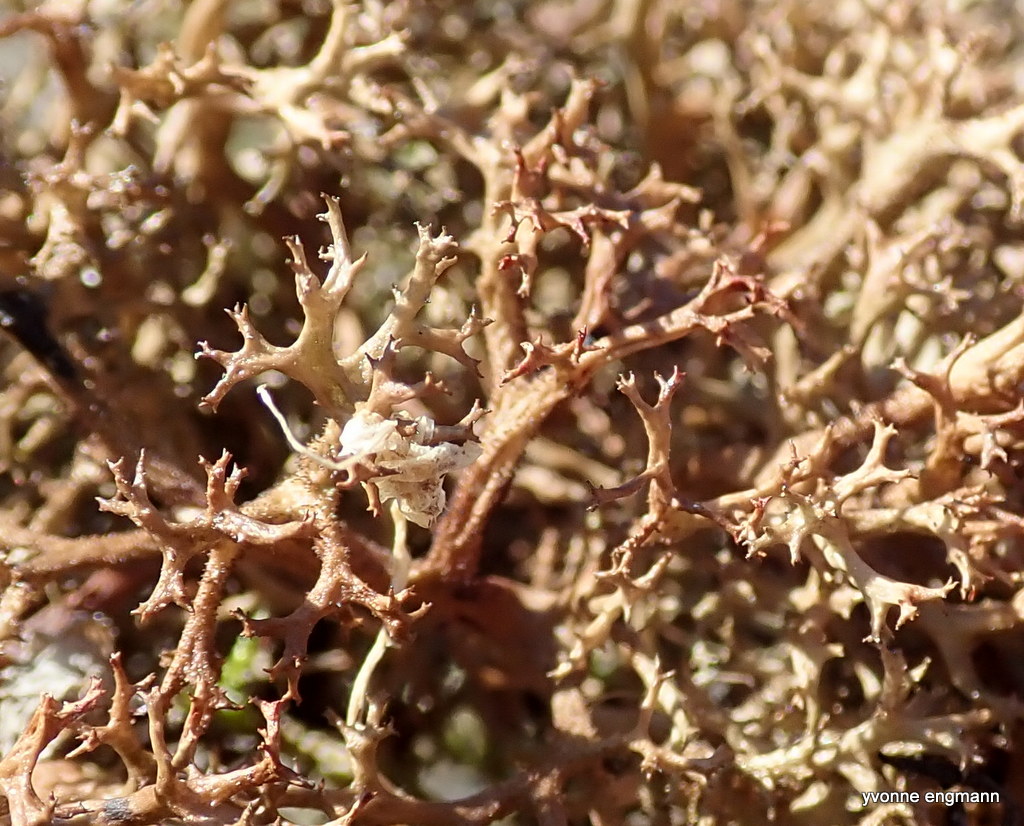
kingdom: Fungi
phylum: Ascomycota
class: Lecanoromycetes
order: Lecanorales
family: Parmeliaceae
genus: Cetraria
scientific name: Cetraria aculeata
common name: grubet tjørnelav
